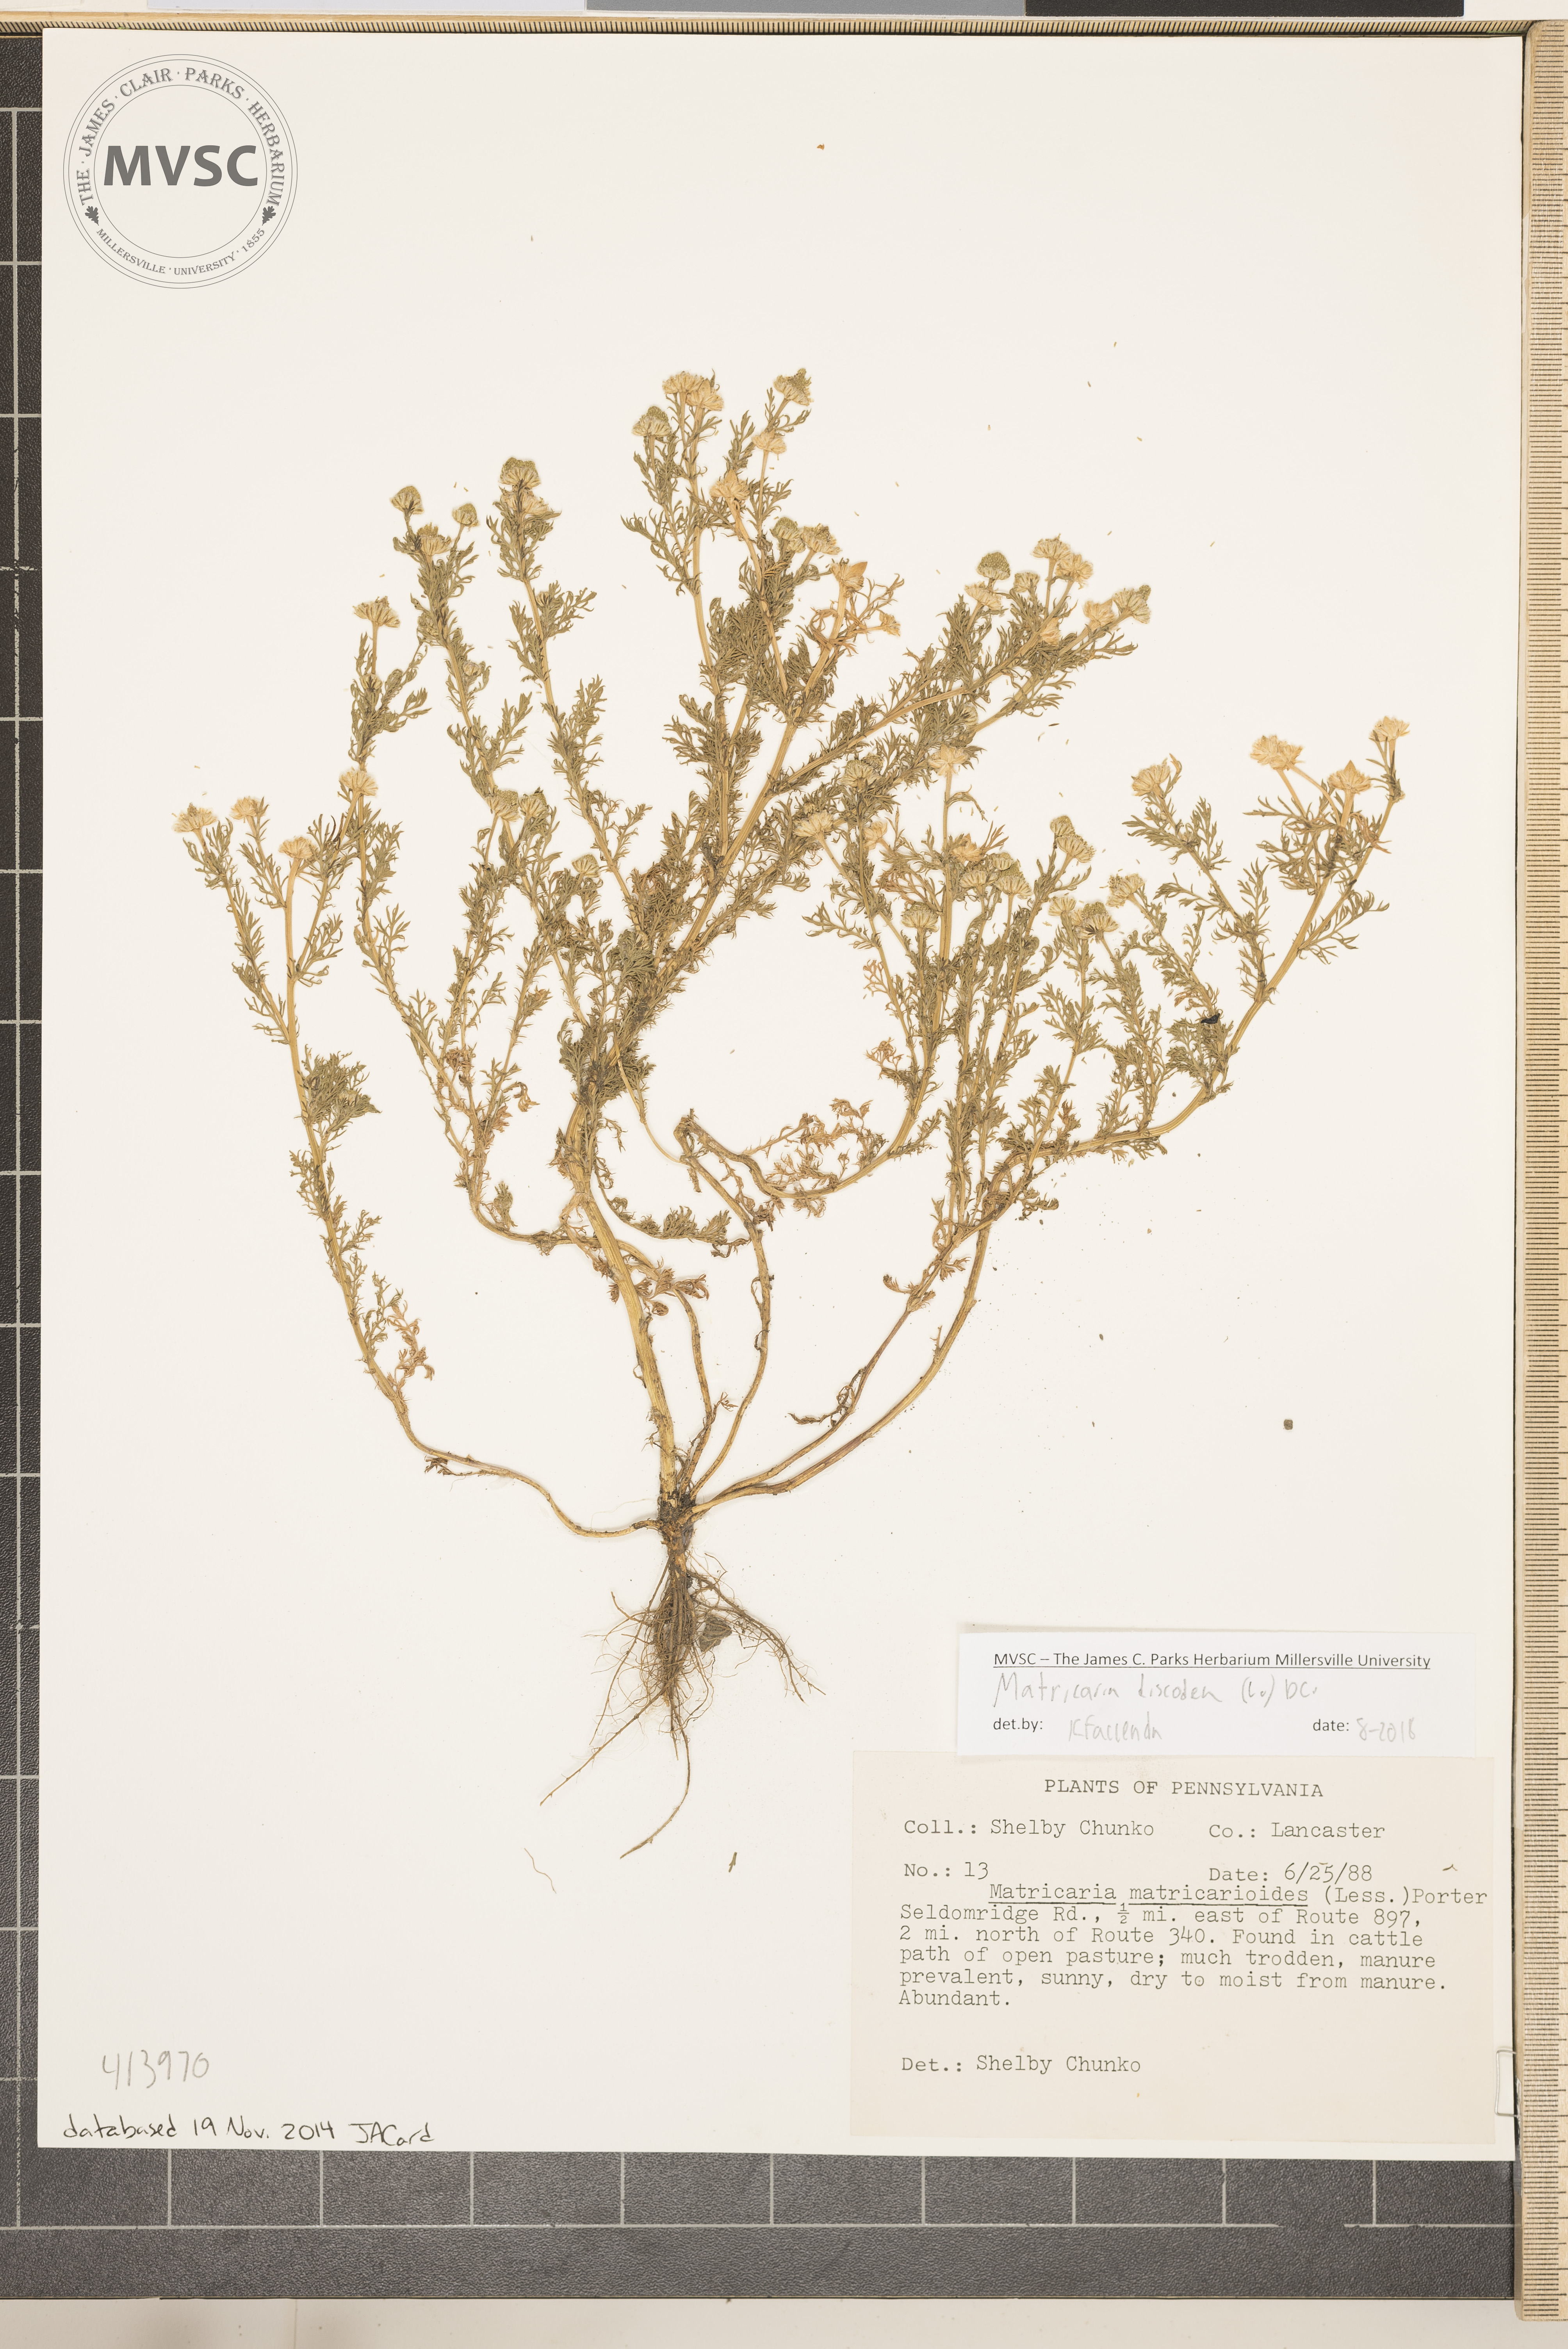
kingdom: Plantae
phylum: Tracheophyta
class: Magnoliopsida
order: Asterales
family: Asteraceae
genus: Matricaria
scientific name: Matricaria discoidea
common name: Disc mayweed
